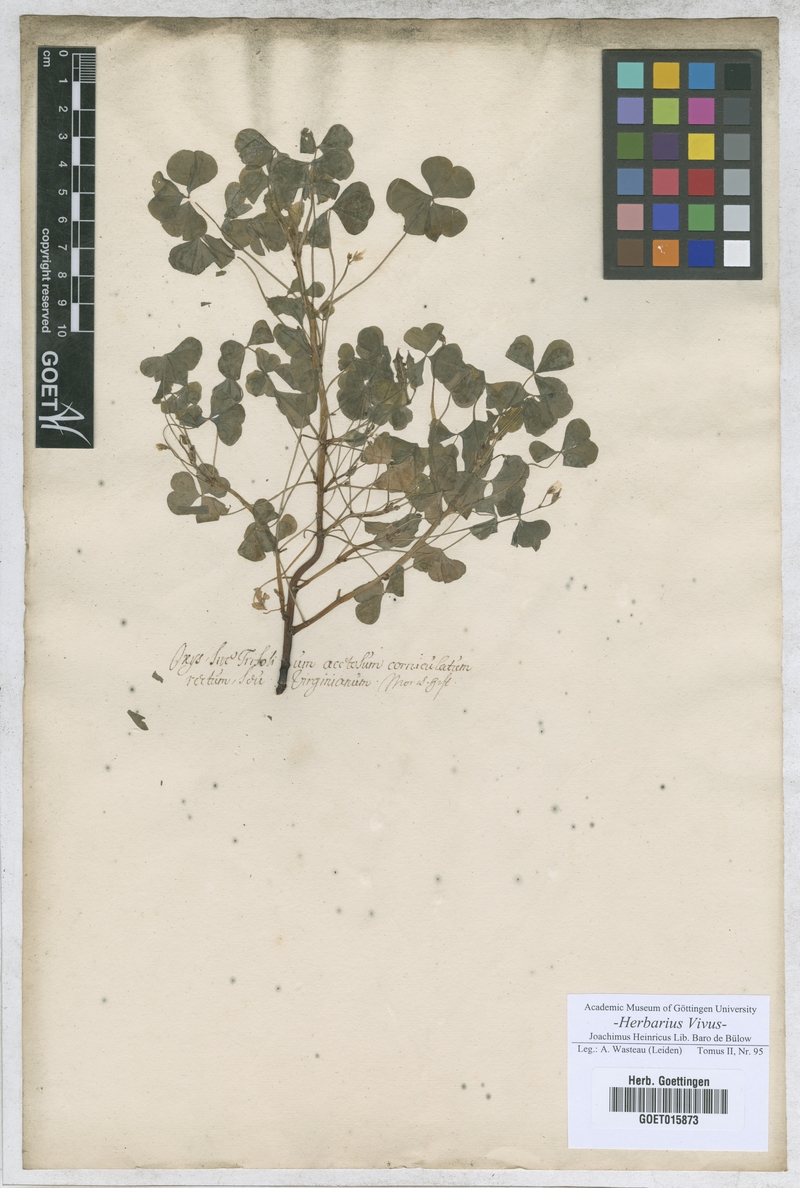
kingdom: Plantae
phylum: Tracheophyta
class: Magnoliopsida
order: Fabales
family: Fabaceae
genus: Trifolium
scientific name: Trifolium
